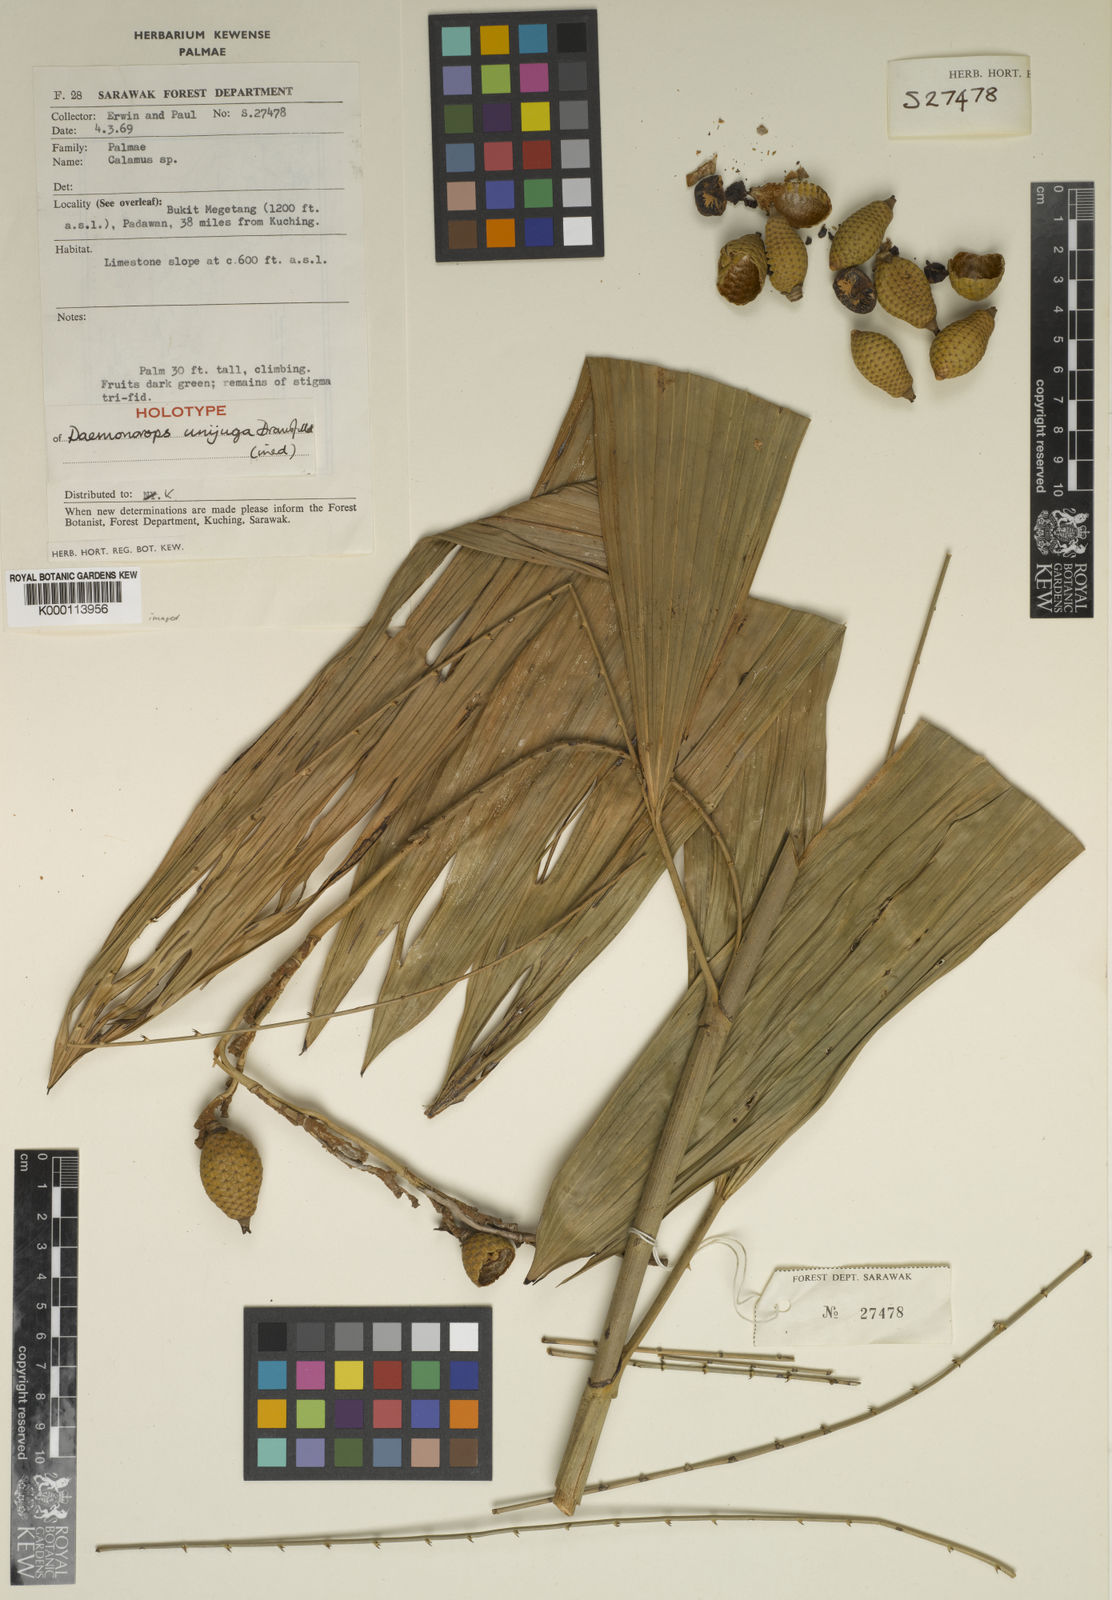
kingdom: Plantae
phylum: Tracheophyta
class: Liliopsida
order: Arecales
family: Arecaceae
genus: Calamus
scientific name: Calamus unijugus
